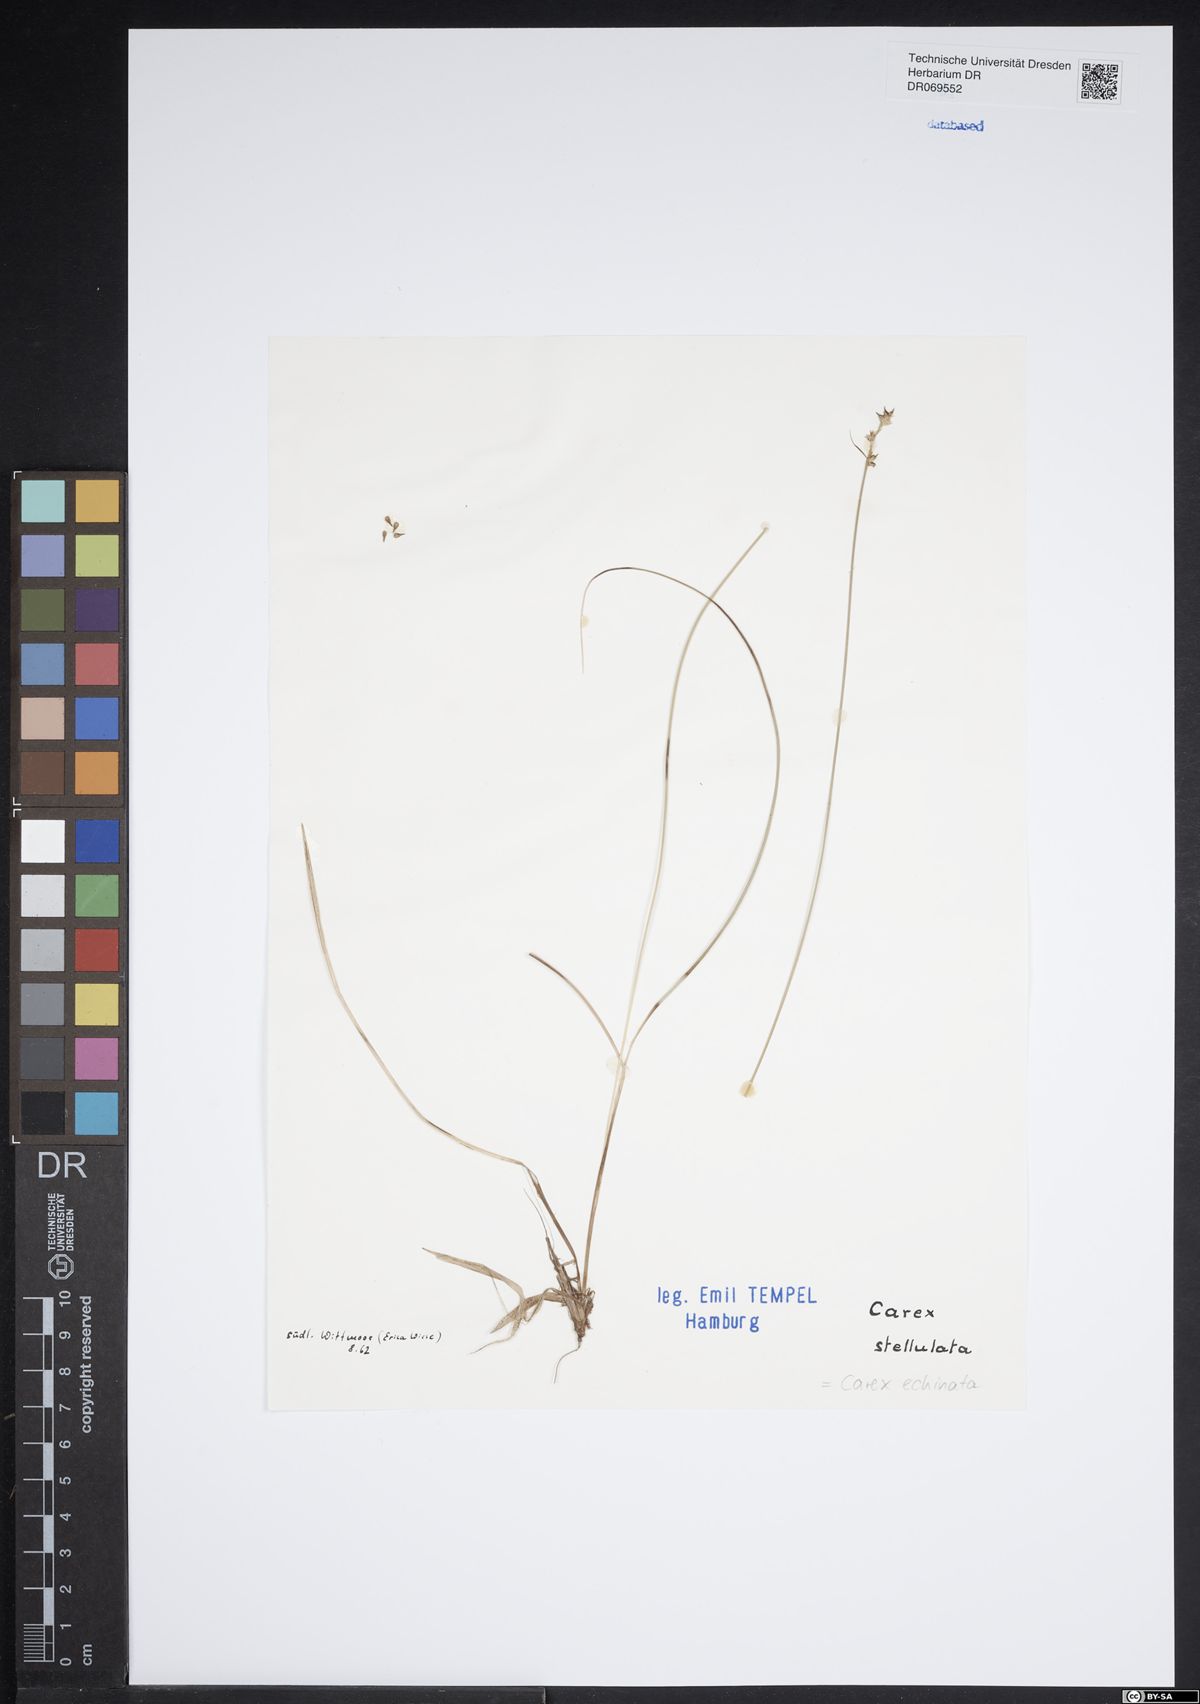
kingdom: Plantae
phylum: Tracheophyta
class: Liliopsida
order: Poales
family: Cyperaceae
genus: Carex
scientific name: Carex echinata
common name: Star sedge
